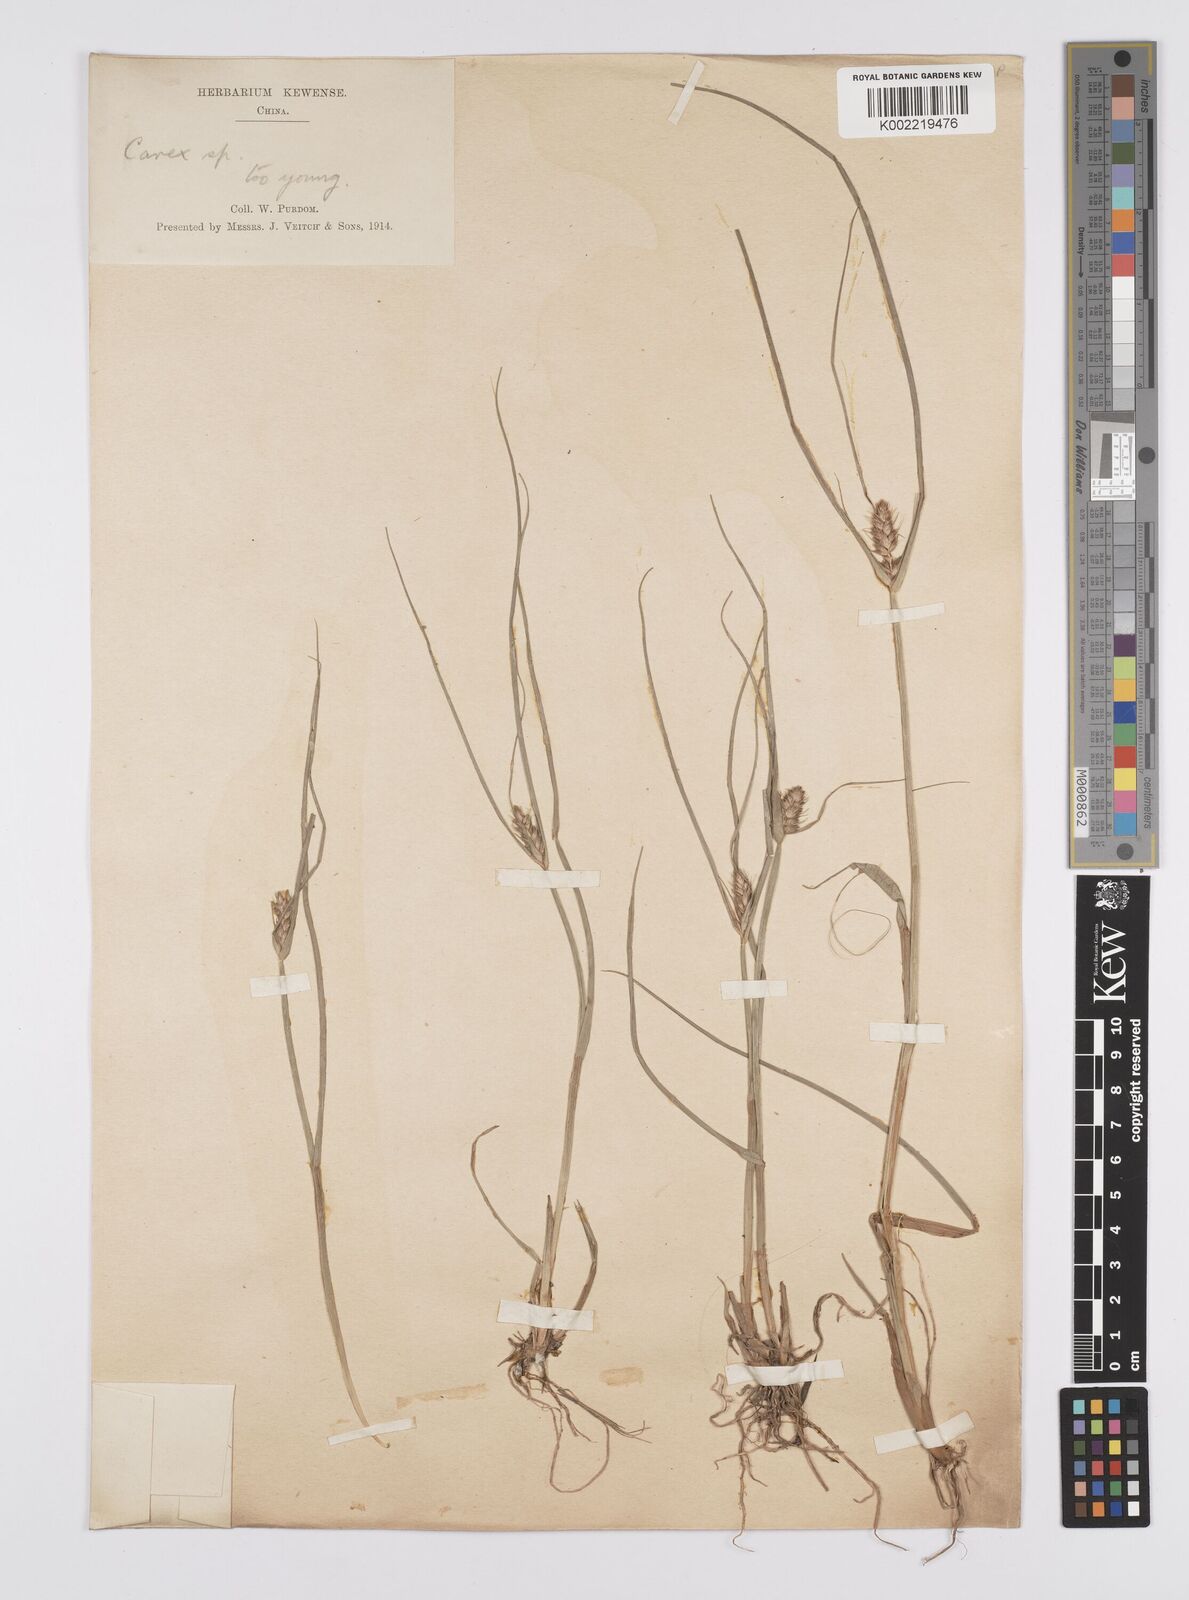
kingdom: Plantae
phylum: Tracheophyta
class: Liliopsida
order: Poales
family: Cyperaceae
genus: Carex
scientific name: Carex neurocarpa
